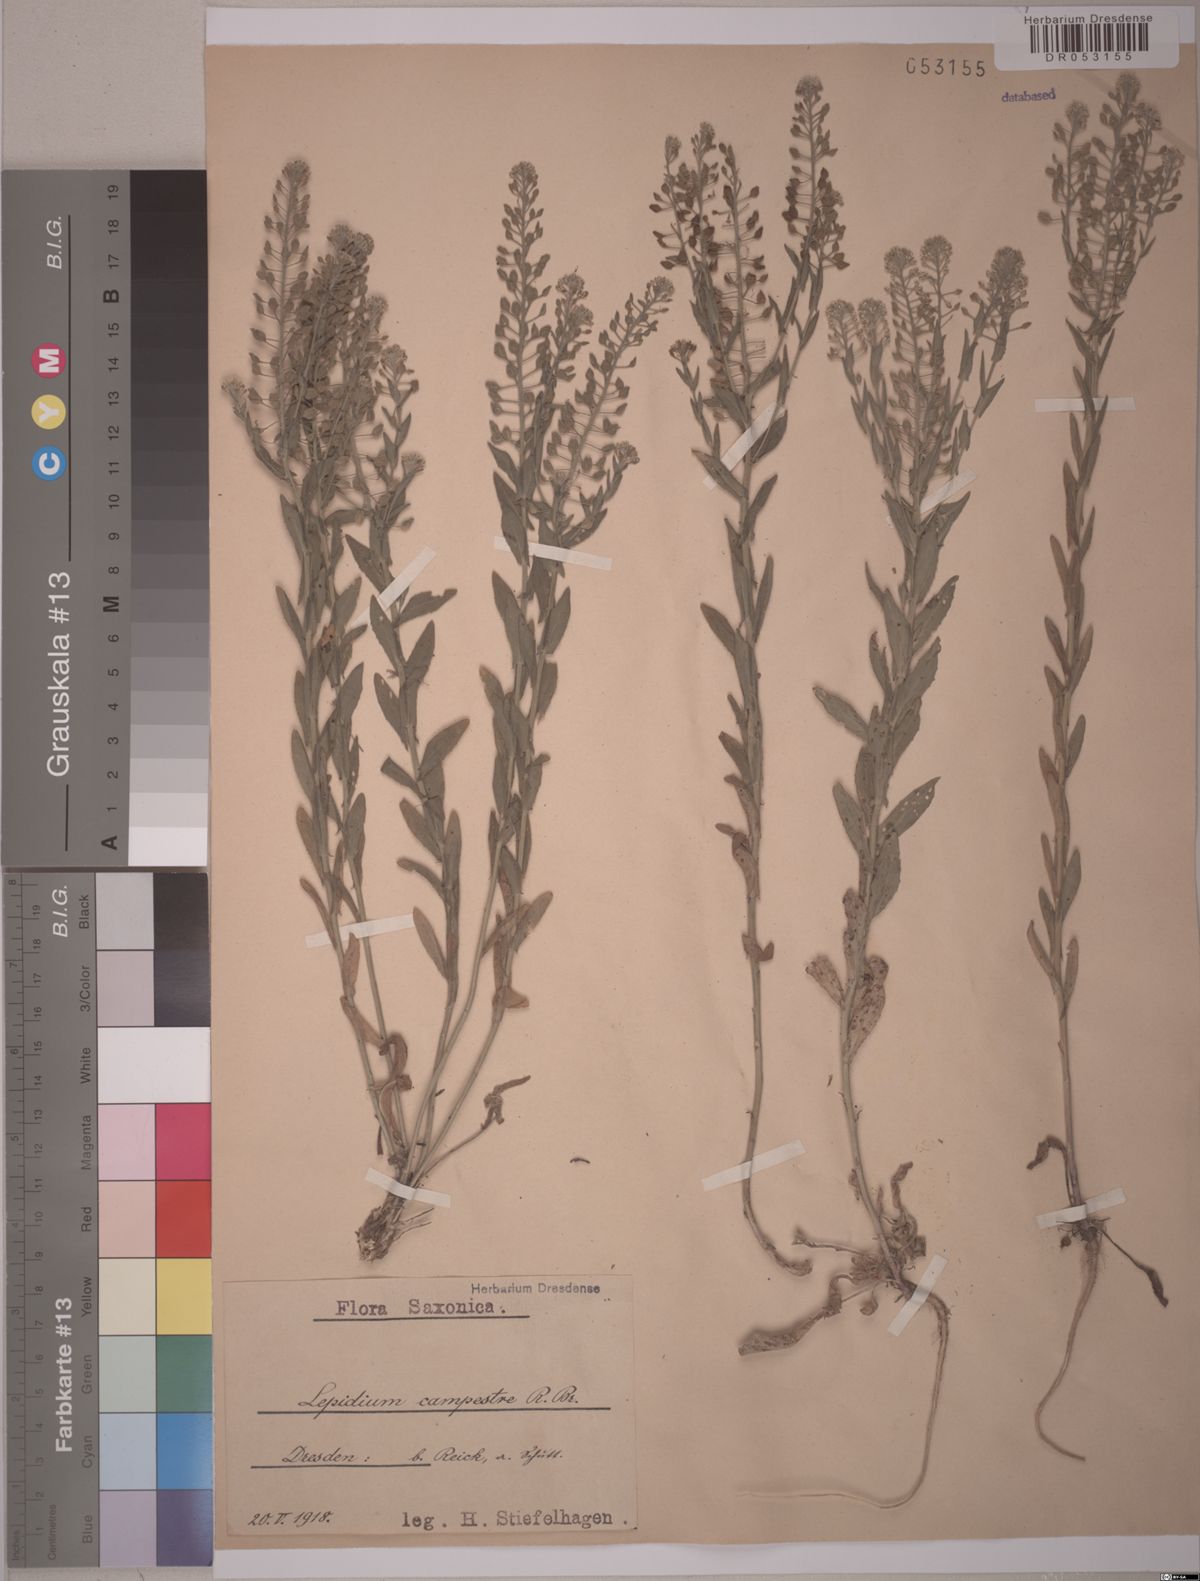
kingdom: Plantae
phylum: Tracheophyta
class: Magnoliopsida
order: Brassicales
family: Brassicaceae
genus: Lepidium
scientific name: Lepidium campestre
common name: Field pepperwort
